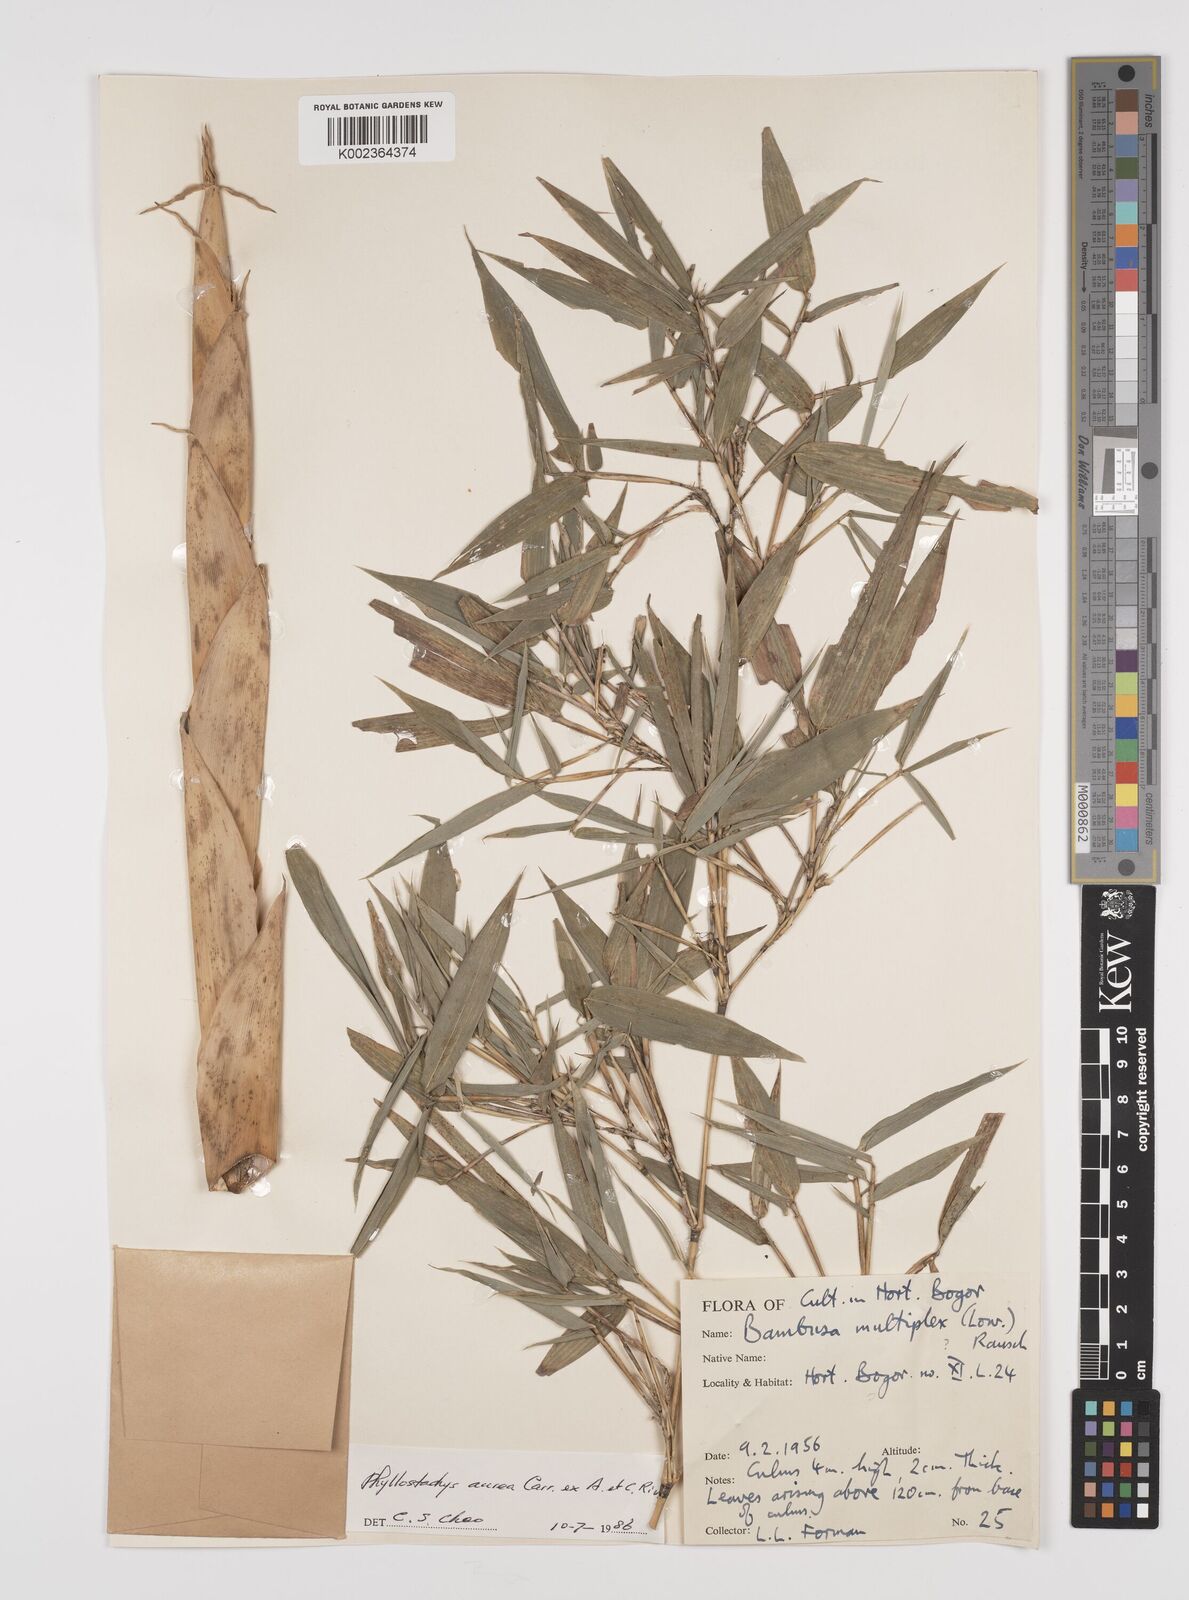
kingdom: Plantae
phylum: Tracheophyta
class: Liliopsida
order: Poales
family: Poaceae
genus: Phyllostachys
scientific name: Phyllostachys aurea
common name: Golden bamboo
